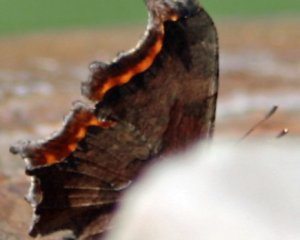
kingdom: Animalia
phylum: Arthropoda
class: Insecta
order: Lepidoptera
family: Nymphalidae
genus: Polygonia
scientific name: Polygonia interrogationis
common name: Question Mark
